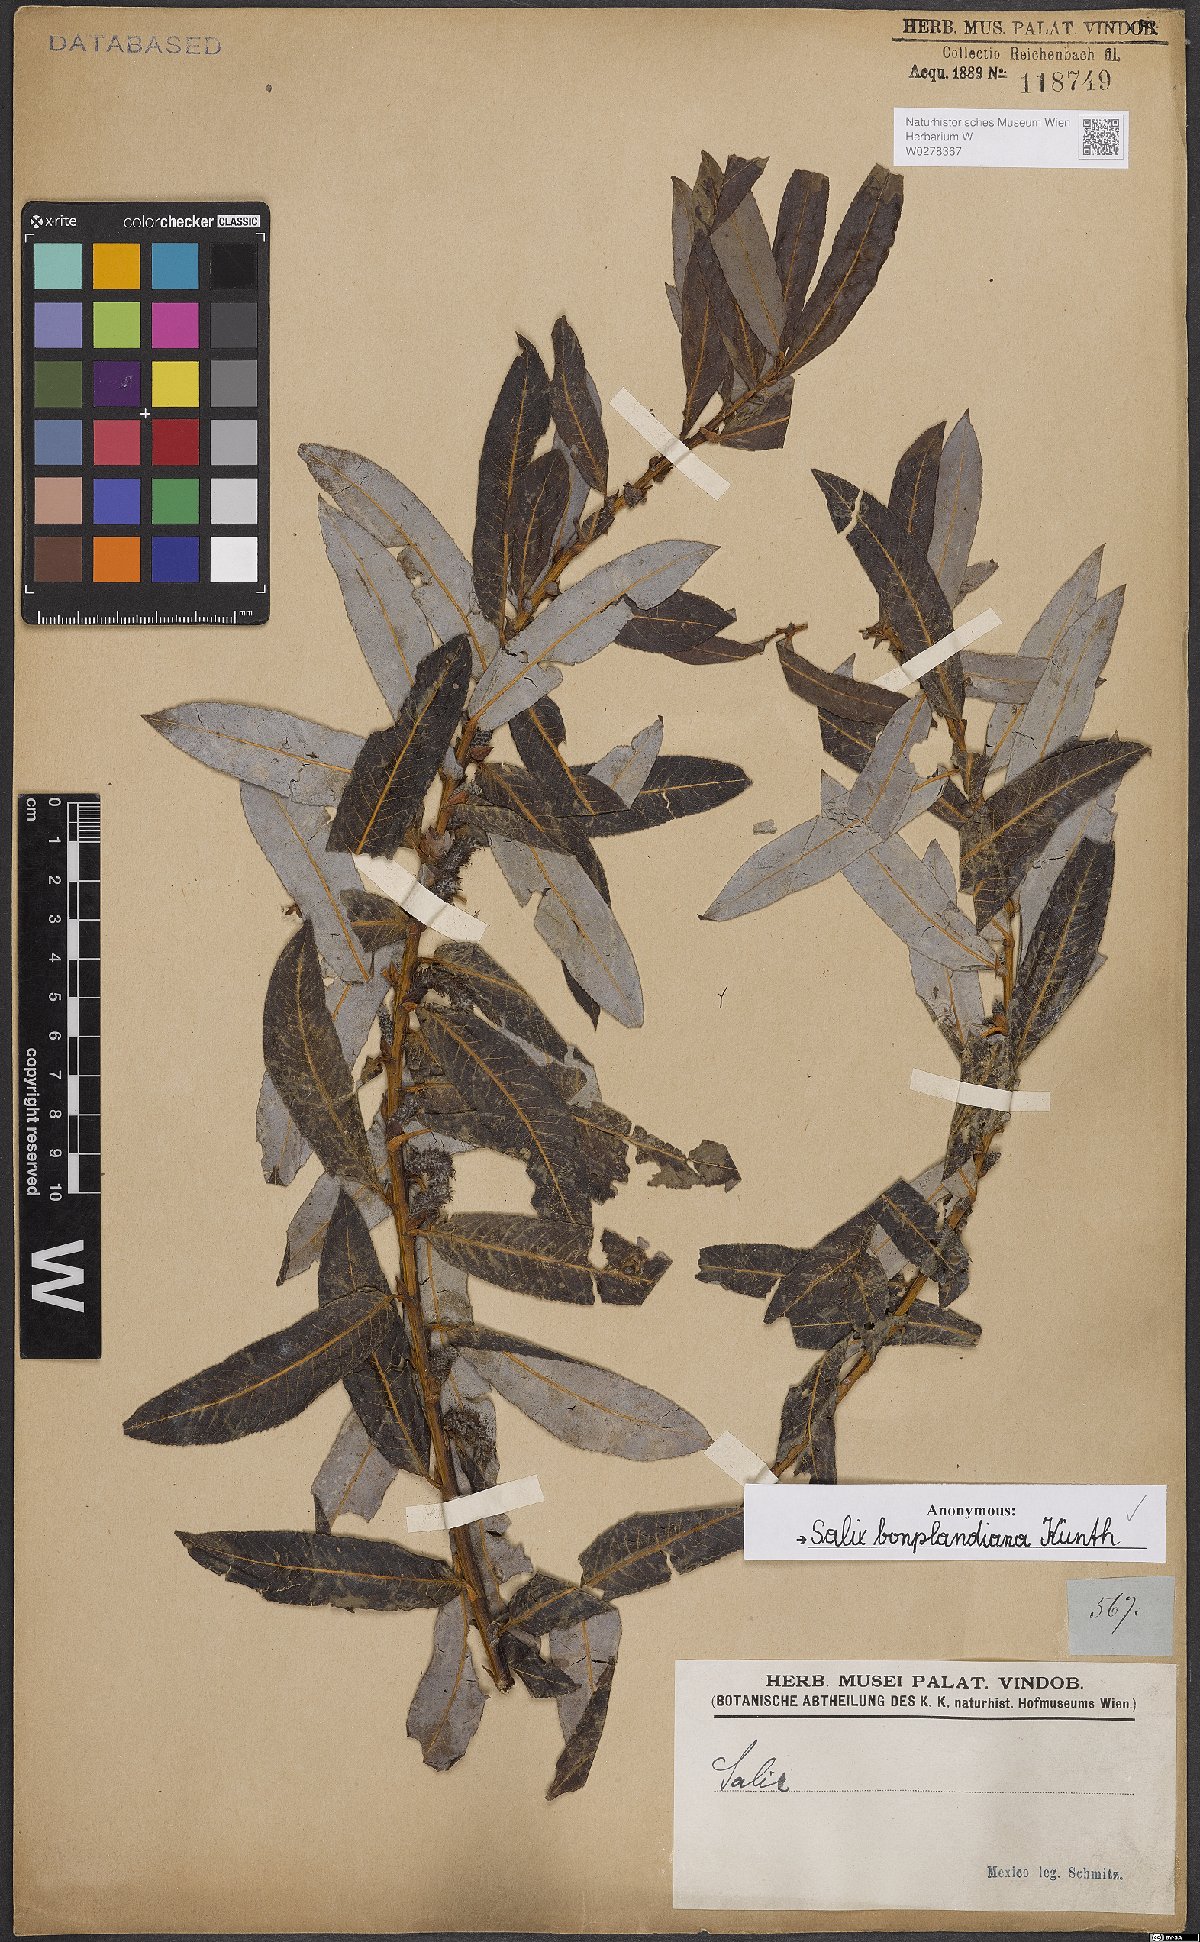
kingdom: Plantae
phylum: Tracheophyta
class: Magnoliopsida
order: Malpighiales
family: Salicaceae
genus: Salix
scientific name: Salix bonplandiana
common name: Bonpland’s willow
